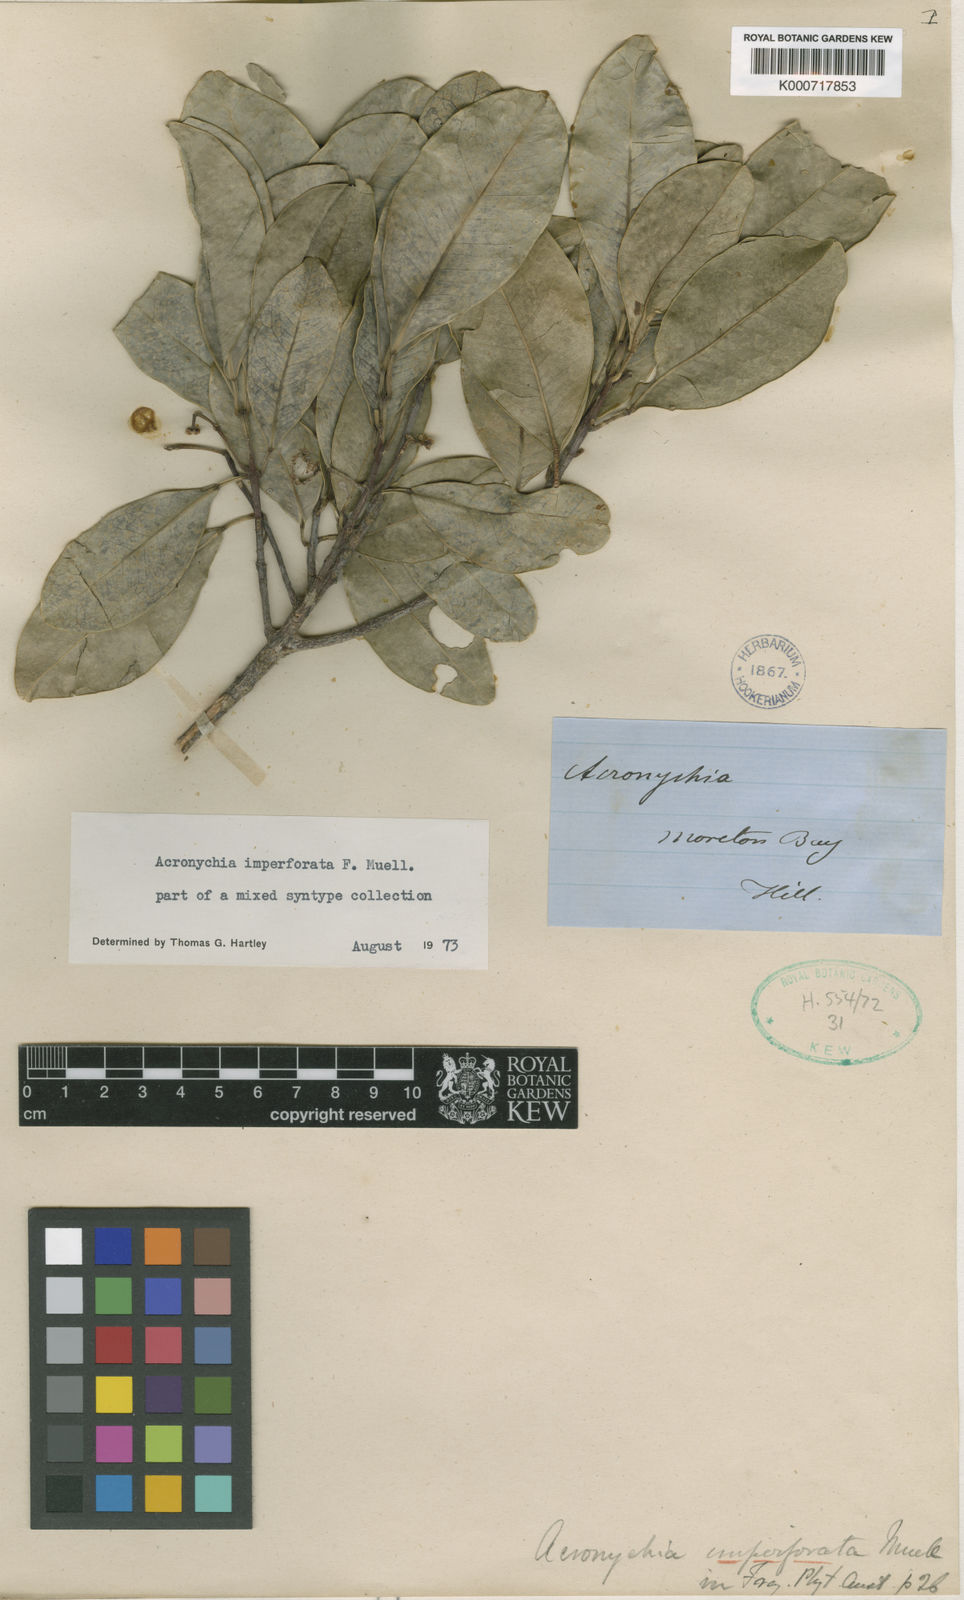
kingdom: Plantae
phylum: Tracheophyta
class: Magnoliopsida
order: Sapindales
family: Rutaceae
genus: Acronychia
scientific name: Acronychia imperforata
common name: Beach acronychia
